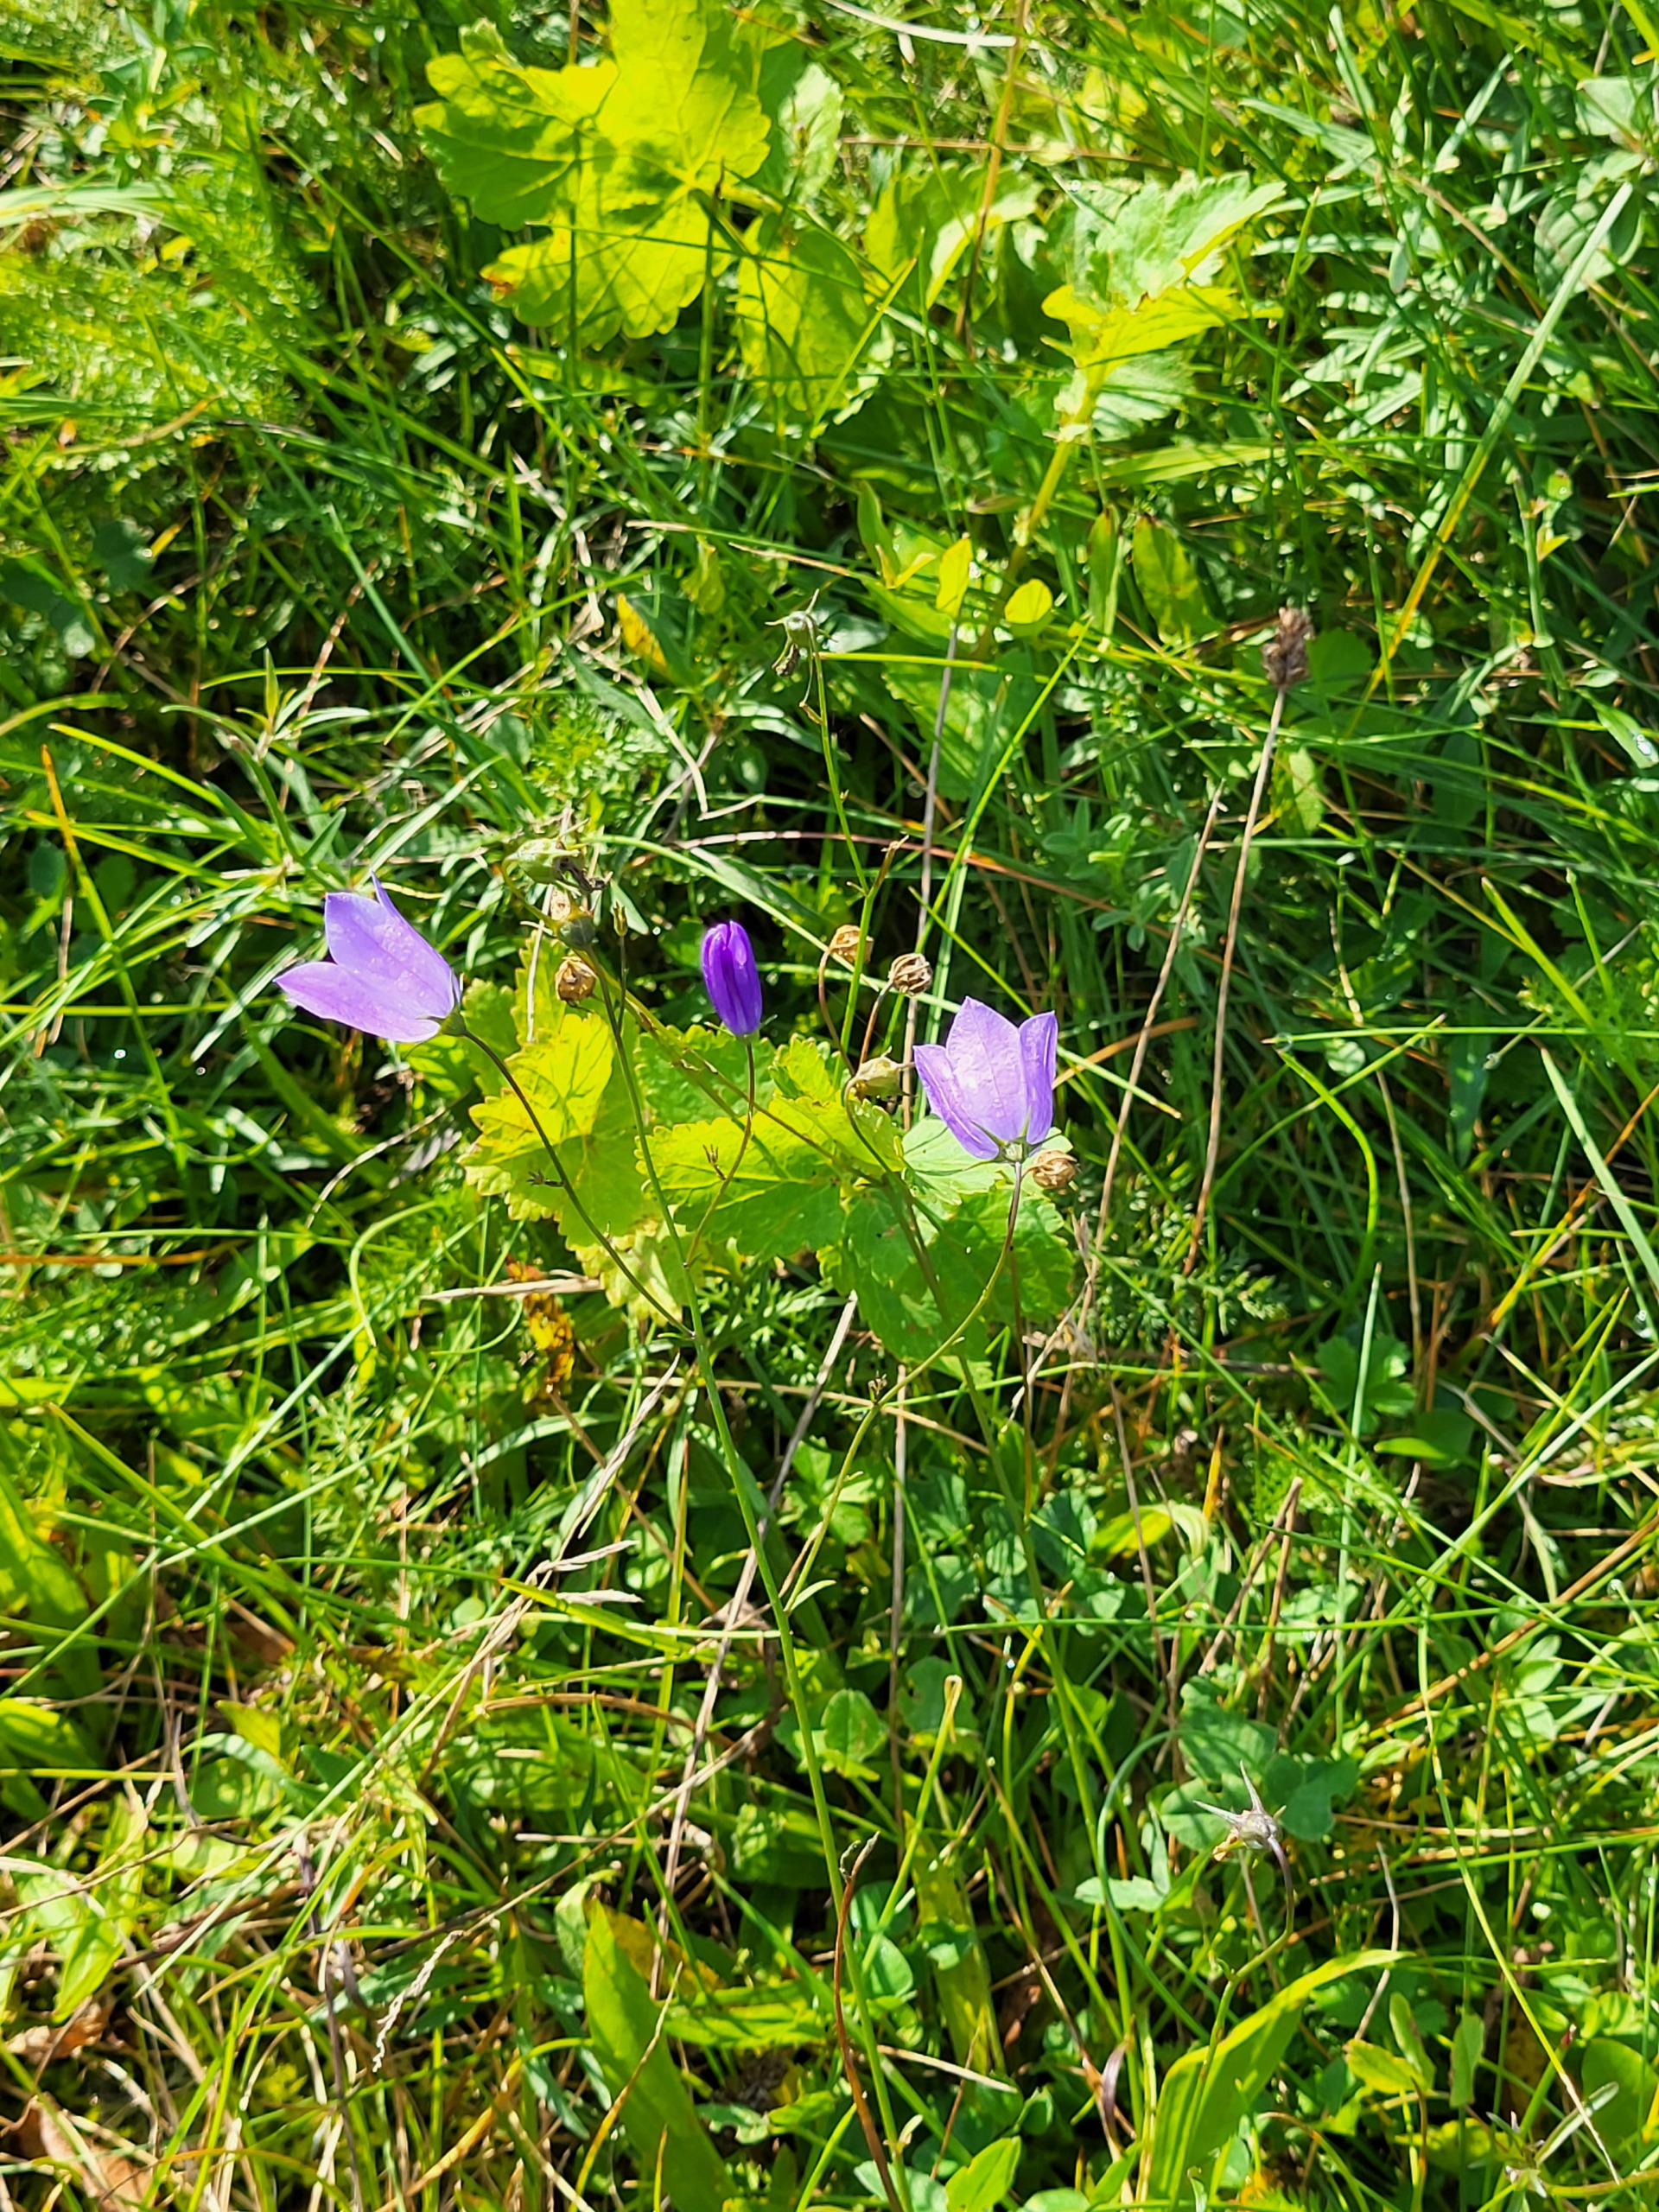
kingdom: Plantae
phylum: Tracheophyta
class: Magnoliopsida
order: Asterales
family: Campanulaceae
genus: Campanula
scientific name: Campanula rotundifolia
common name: Liden klokke
